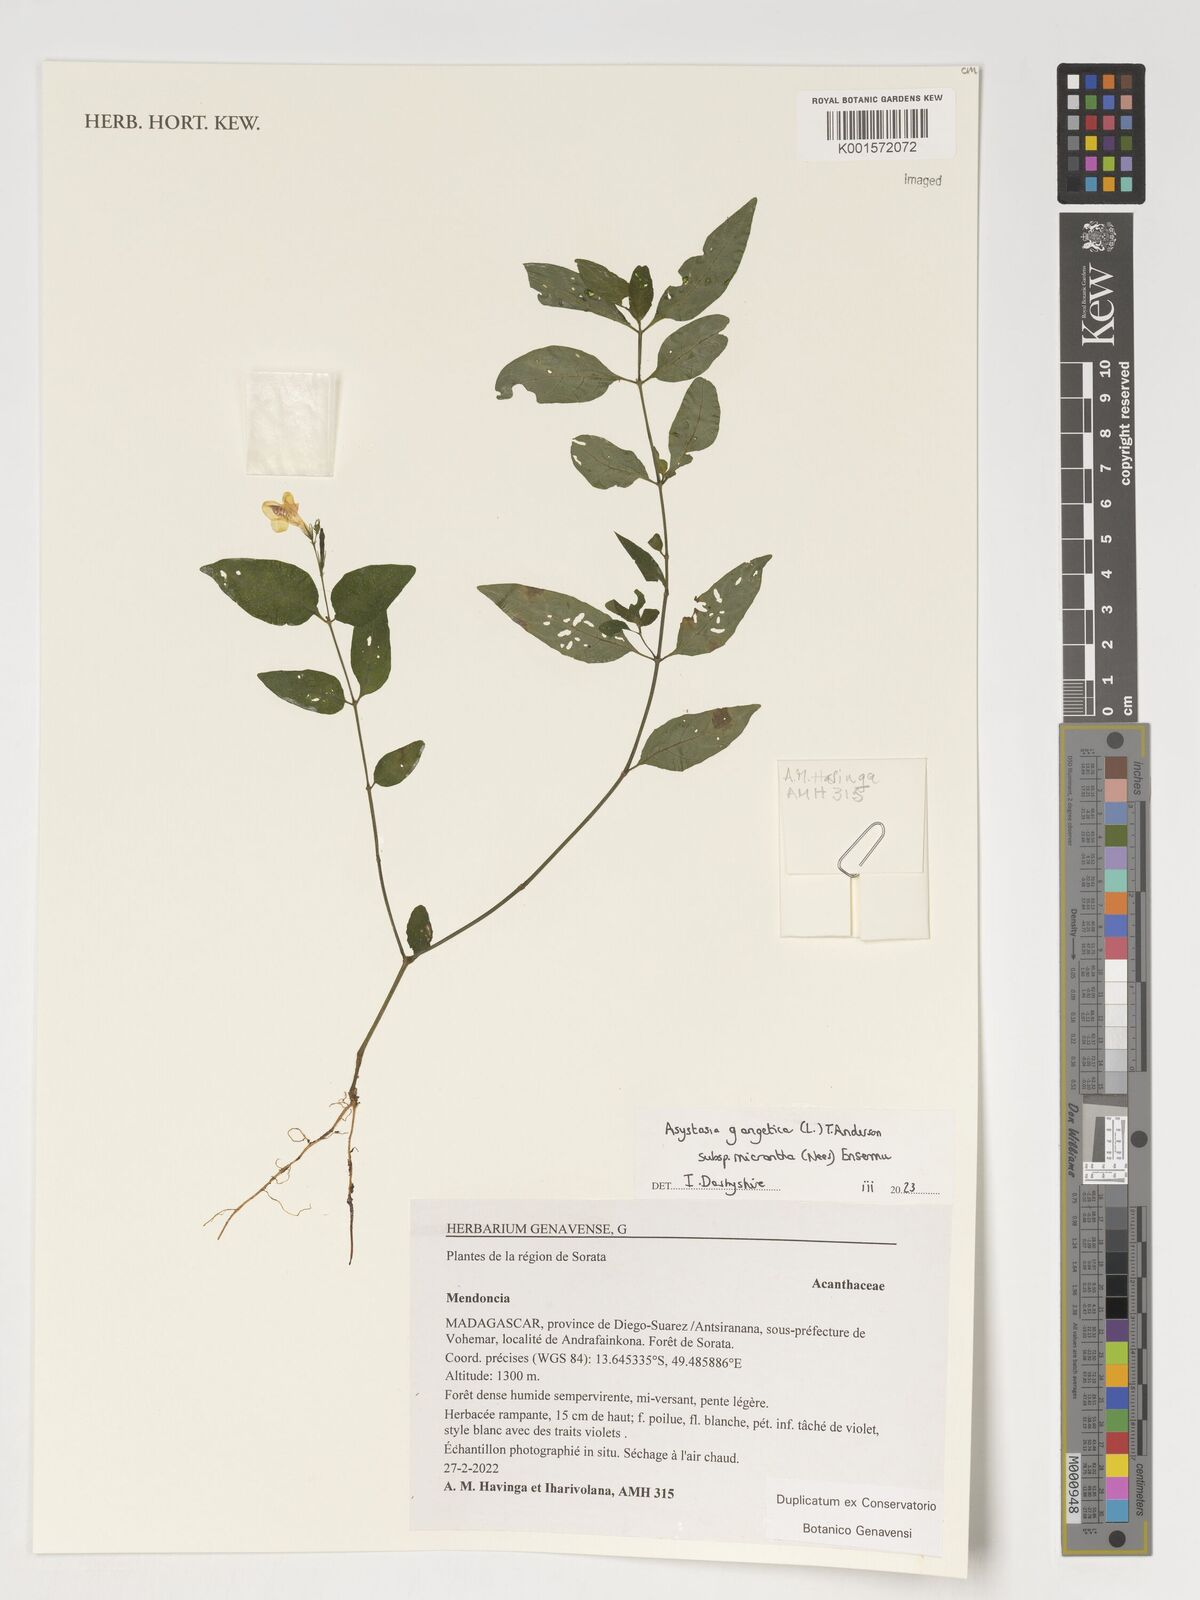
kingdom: Plantae
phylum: Tracheophyta
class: Magnoliopsida
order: Lamiales
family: Acanthaceae
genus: Mendoncia
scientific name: Mendoncia
